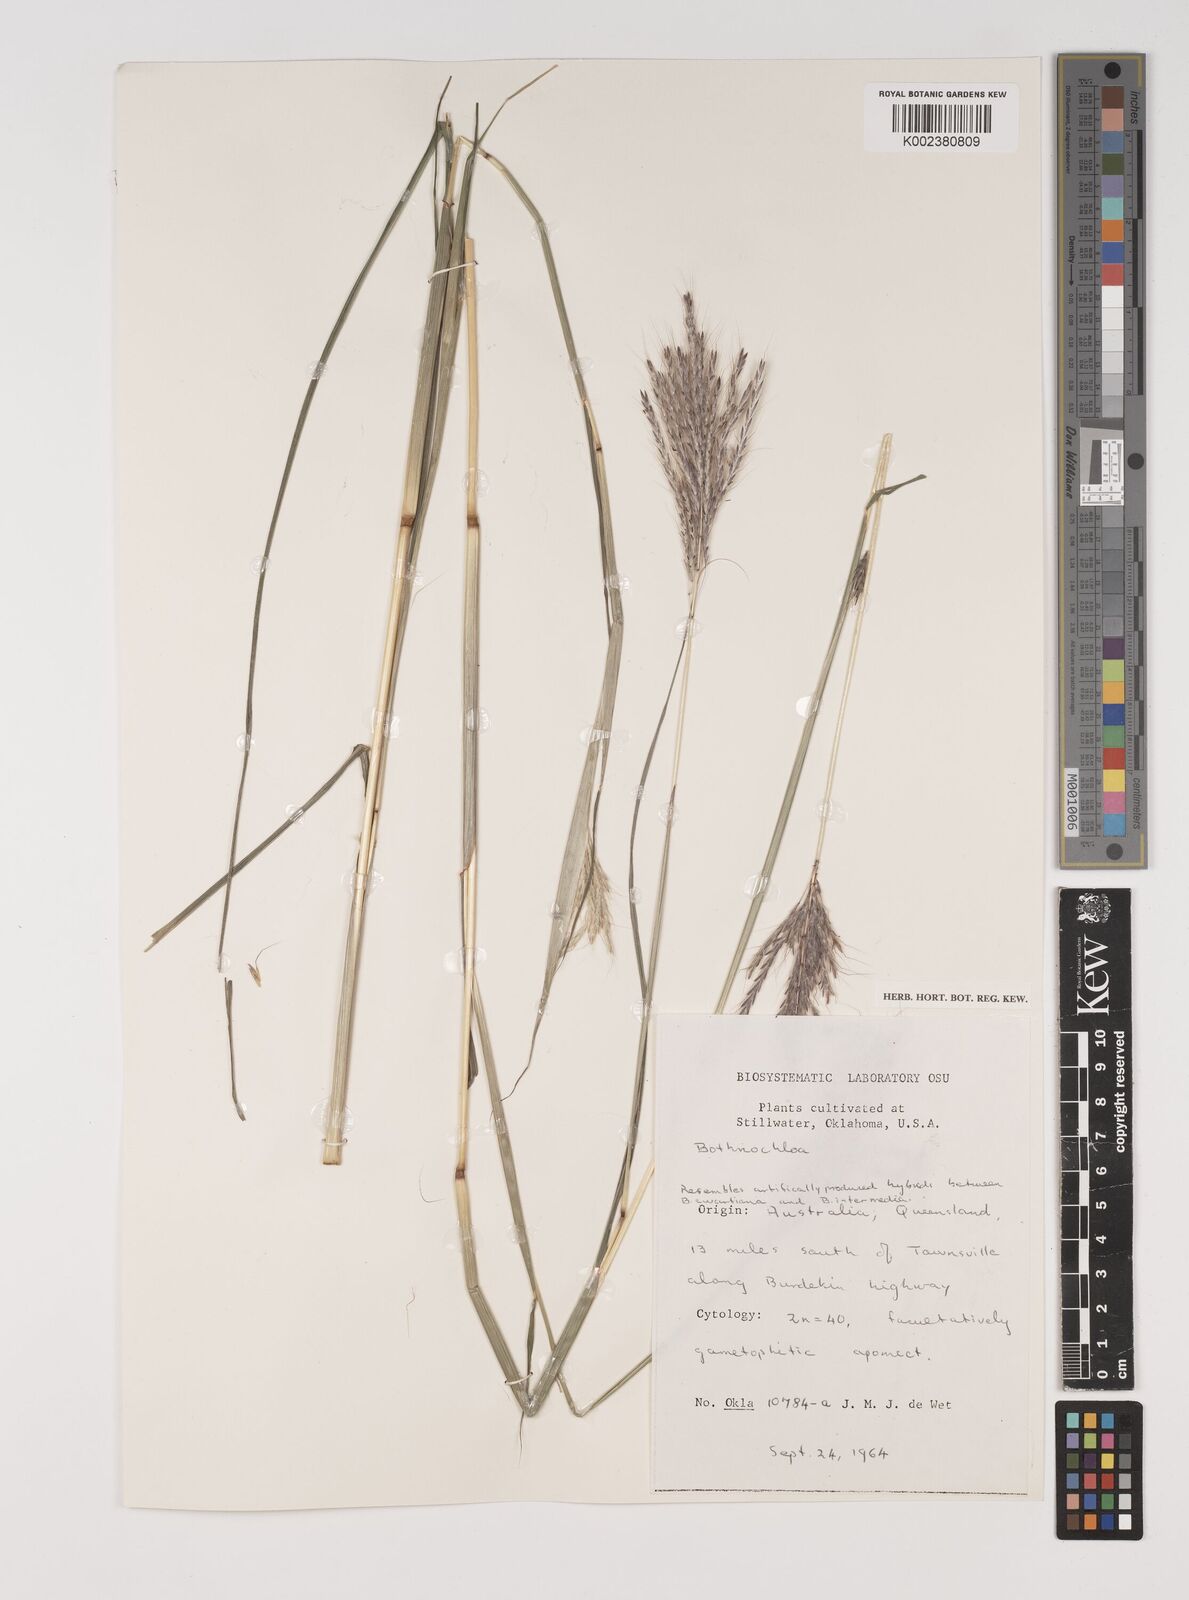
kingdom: Plantae
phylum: Tracheophyta
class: Liliopsida
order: Poales
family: Poaceae
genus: Bothriochloa
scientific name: Bothriochloa bladhii
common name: Caucasian bluestem
